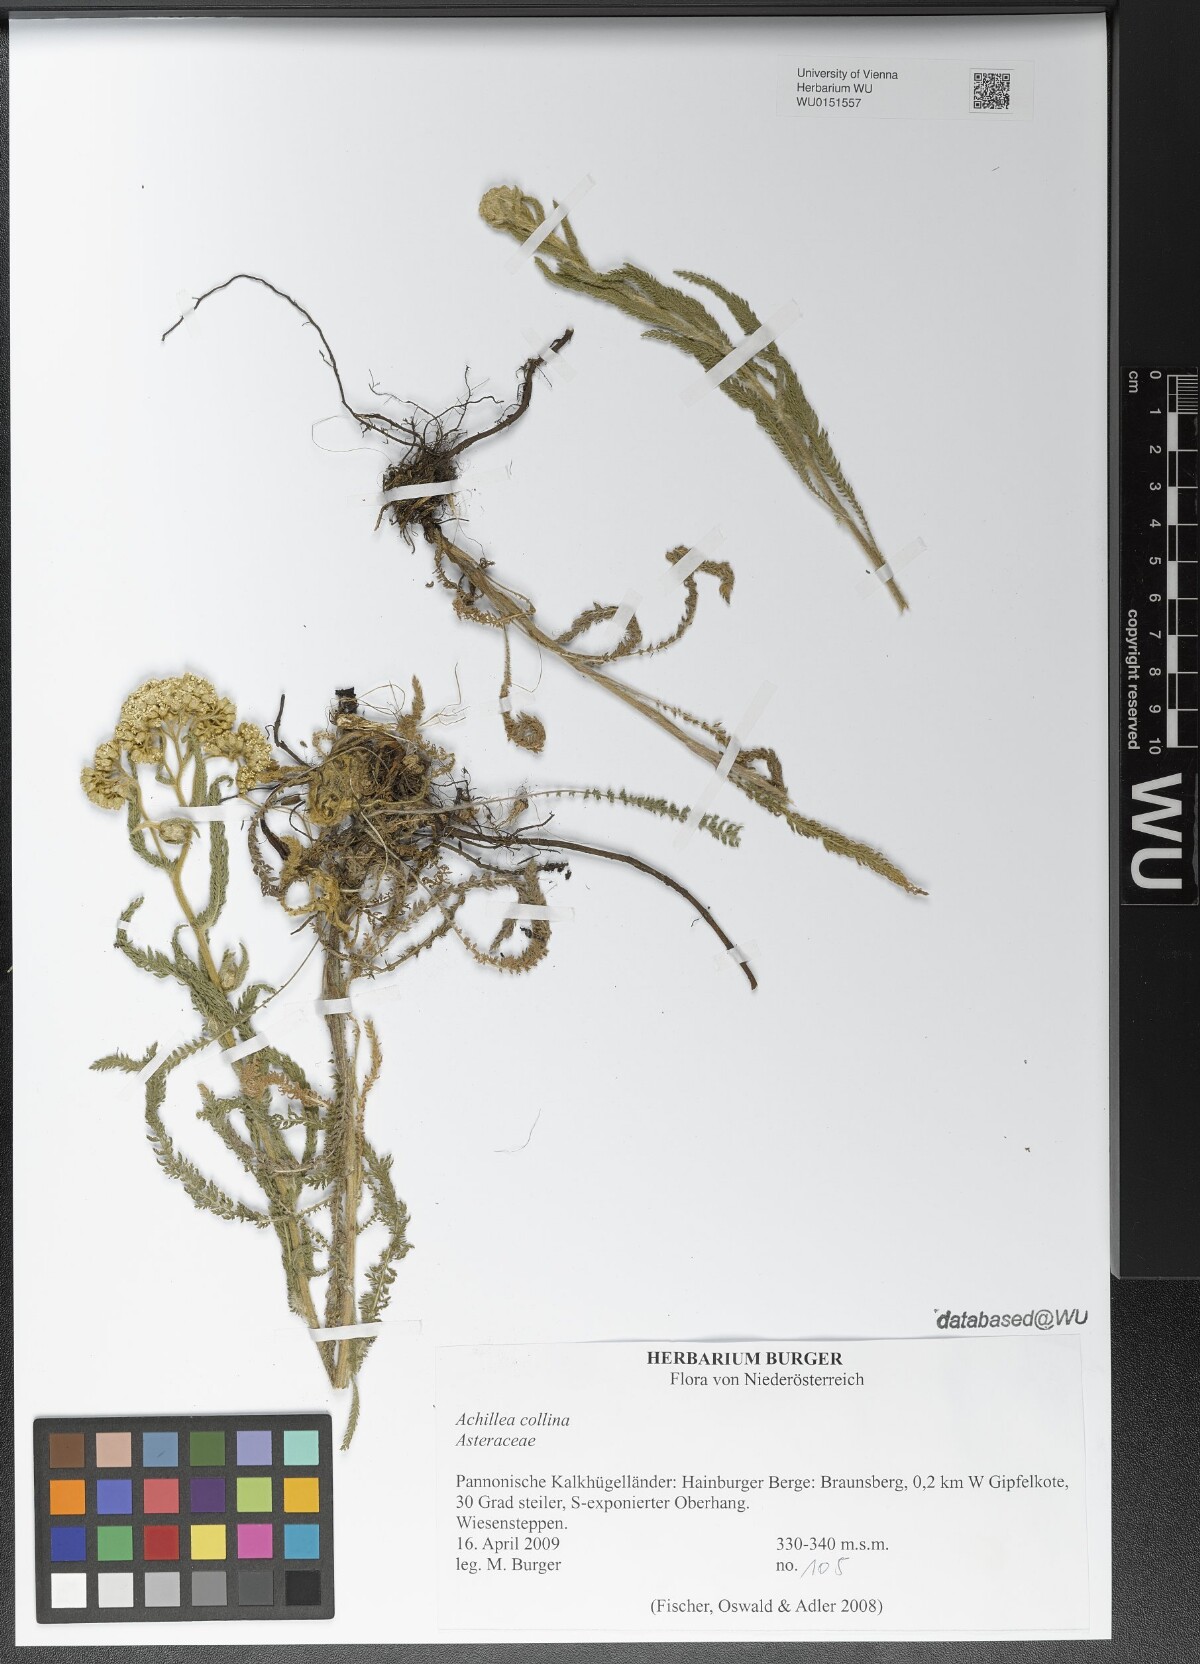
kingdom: Plantae
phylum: Tracheophyta
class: Magnoliopsida
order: Asterales
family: Asteraceae
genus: Achillea
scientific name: Achillea collina
